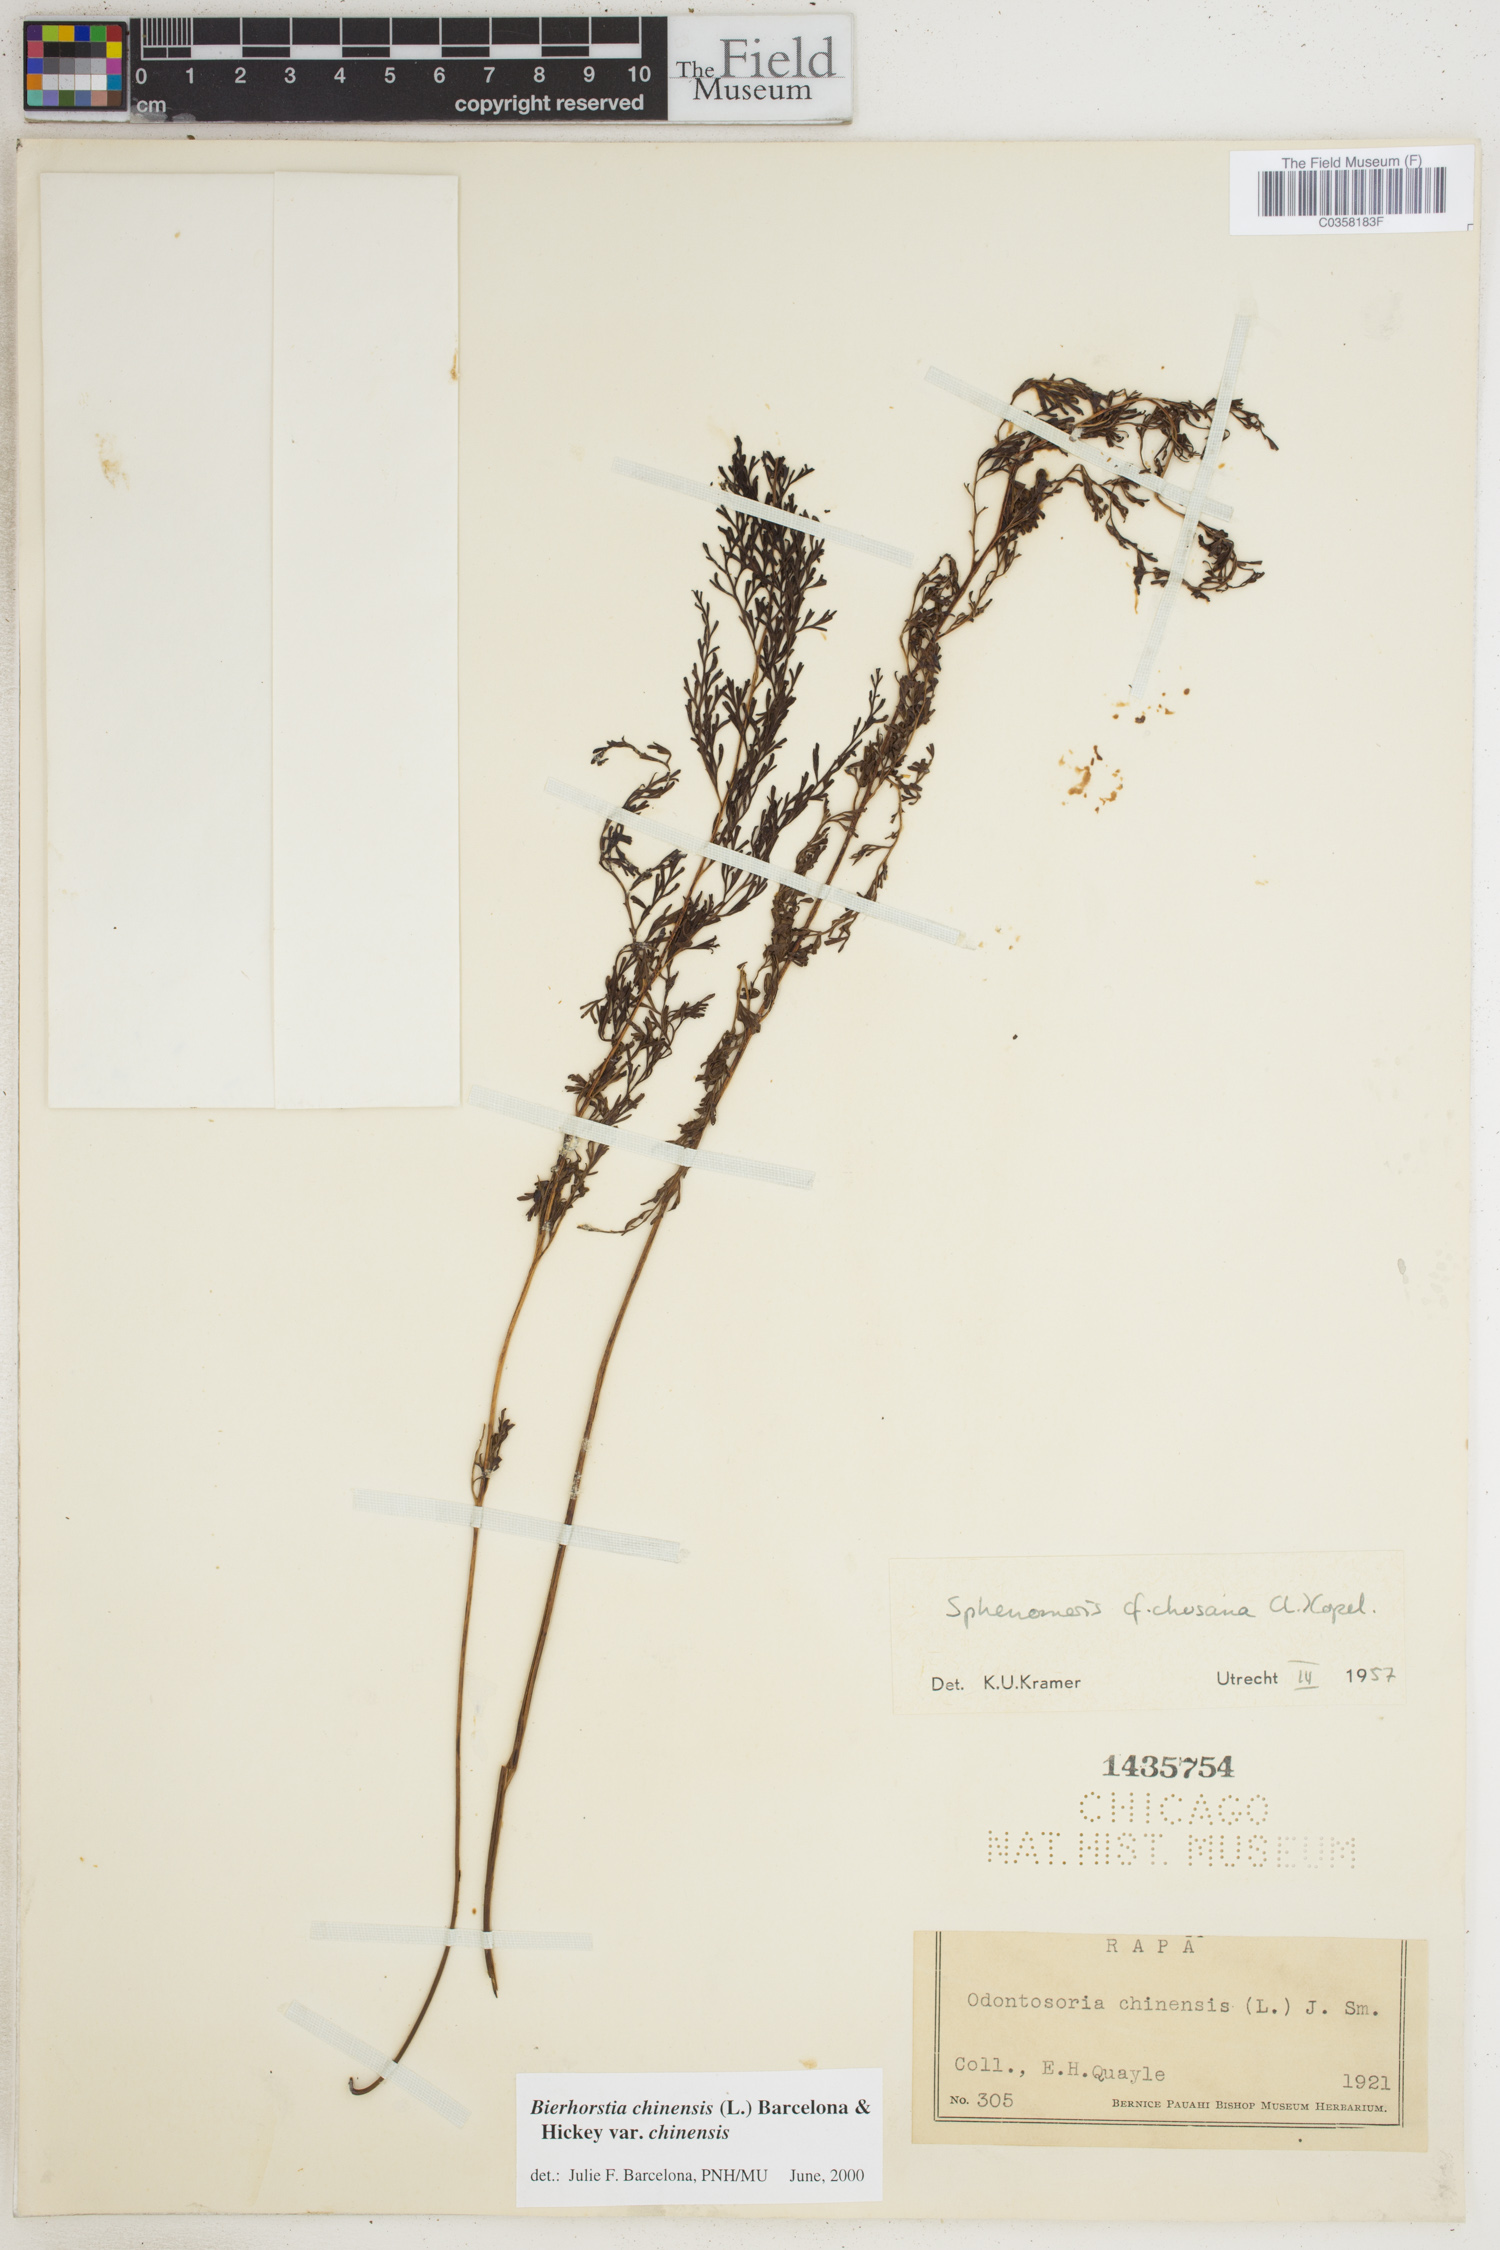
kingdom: Plantae
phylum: Tracheophyta
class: Polypodiopsida
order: Polypodiales
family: Lindsaeaceae
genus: Odontosoria
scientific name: Odontosoria chinensis
